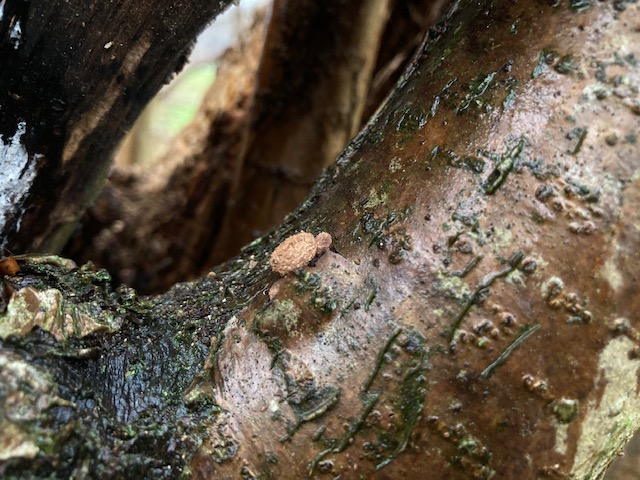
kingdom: Fungi
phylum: Ascomycota
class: Leotiomycetes
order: Helotiales
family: Cenangiaceae
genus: Encoelia
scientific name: Encoelia furfuracea
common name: hassel-læderskive
